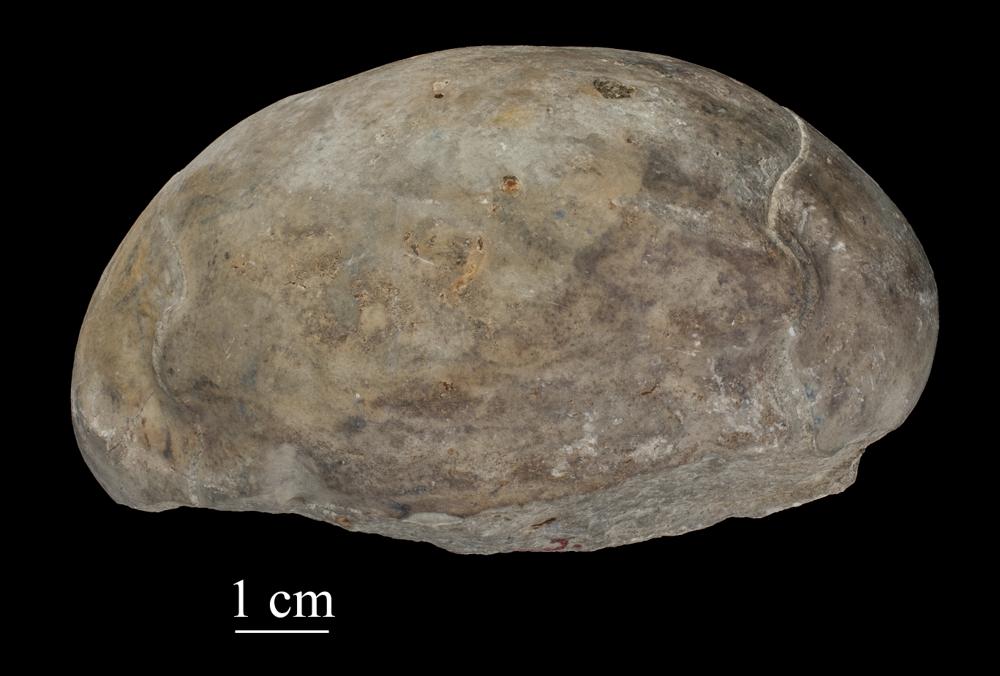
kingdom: Animalia
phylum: Arthropoda
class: Trilobita
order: Asaphida
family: Asaphidae
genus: Asaphus
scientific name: Asaphus raniceps
